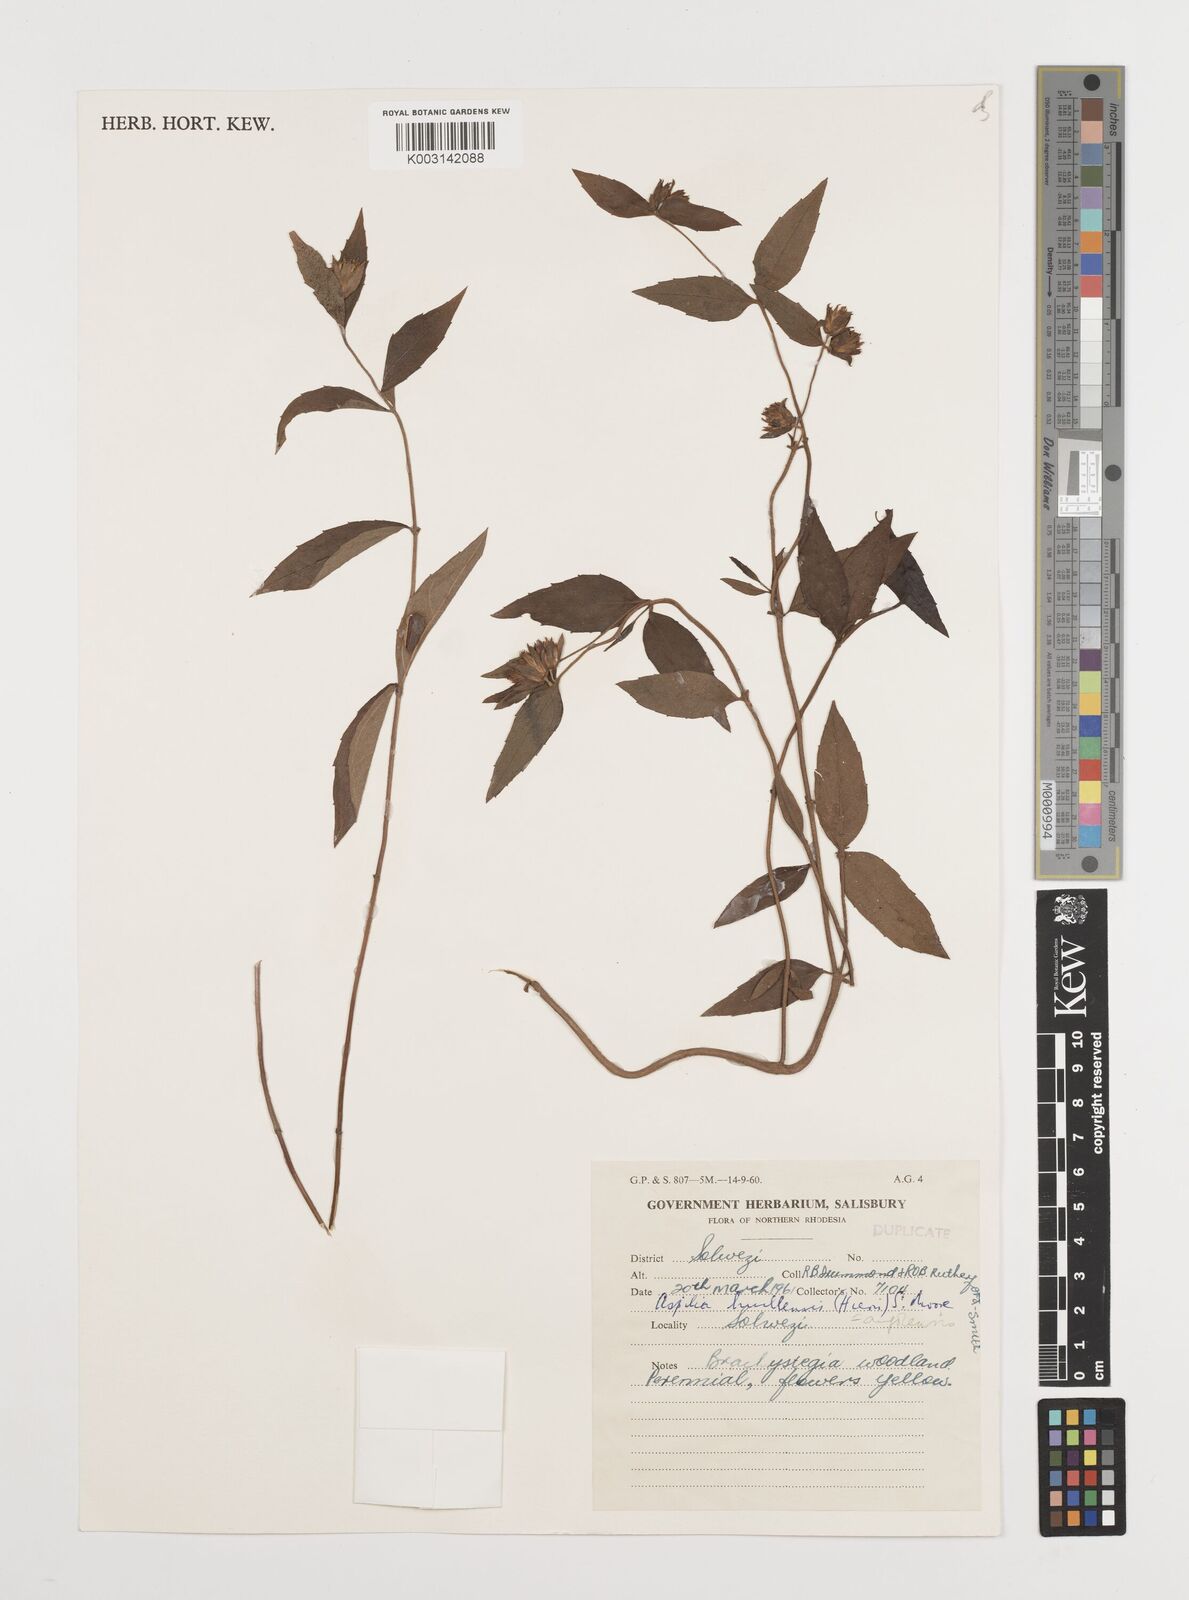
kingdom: Plantae
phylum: Tracheophyta
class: Magnoliopsida
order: Asterales
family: Asteraceae
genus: Aspilia
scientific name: Aspilia angolensis
